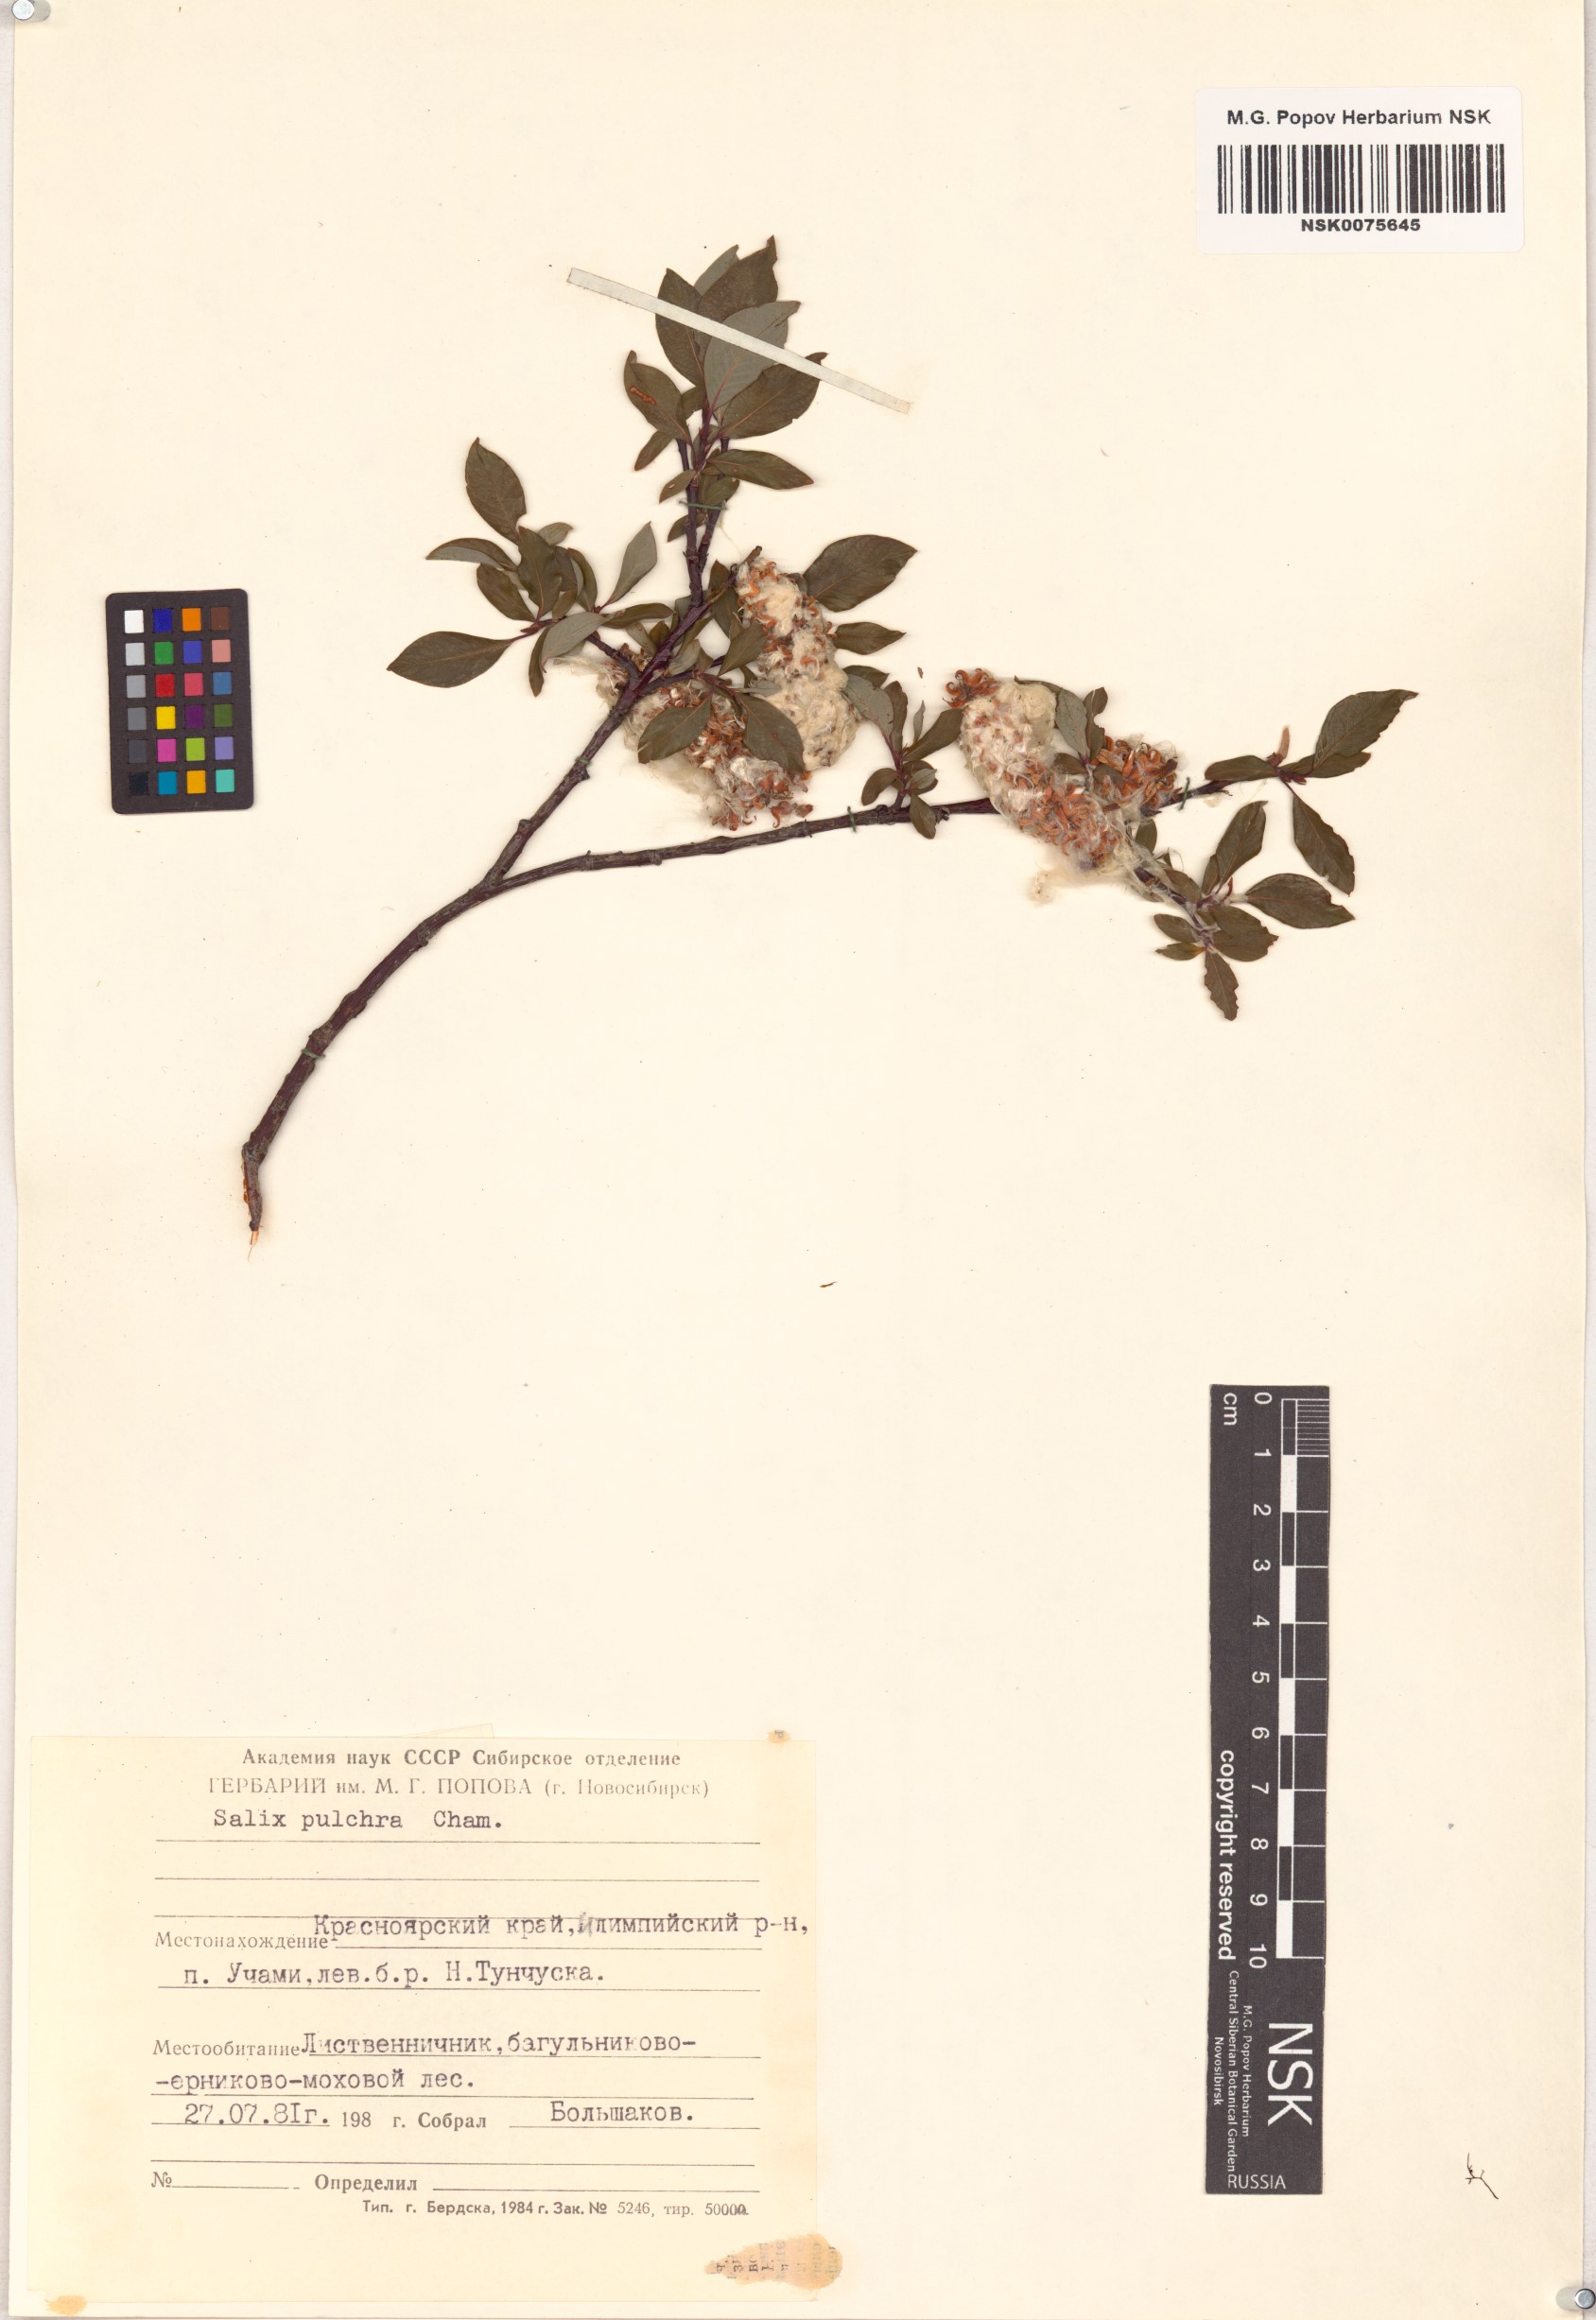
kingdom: Plantae
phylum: Tracheophyta
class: Magnoliopsida
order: Malpighiales
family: Salicaceae
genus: Salix
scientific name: Salix pulchra
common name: Diamond-leaved willow
